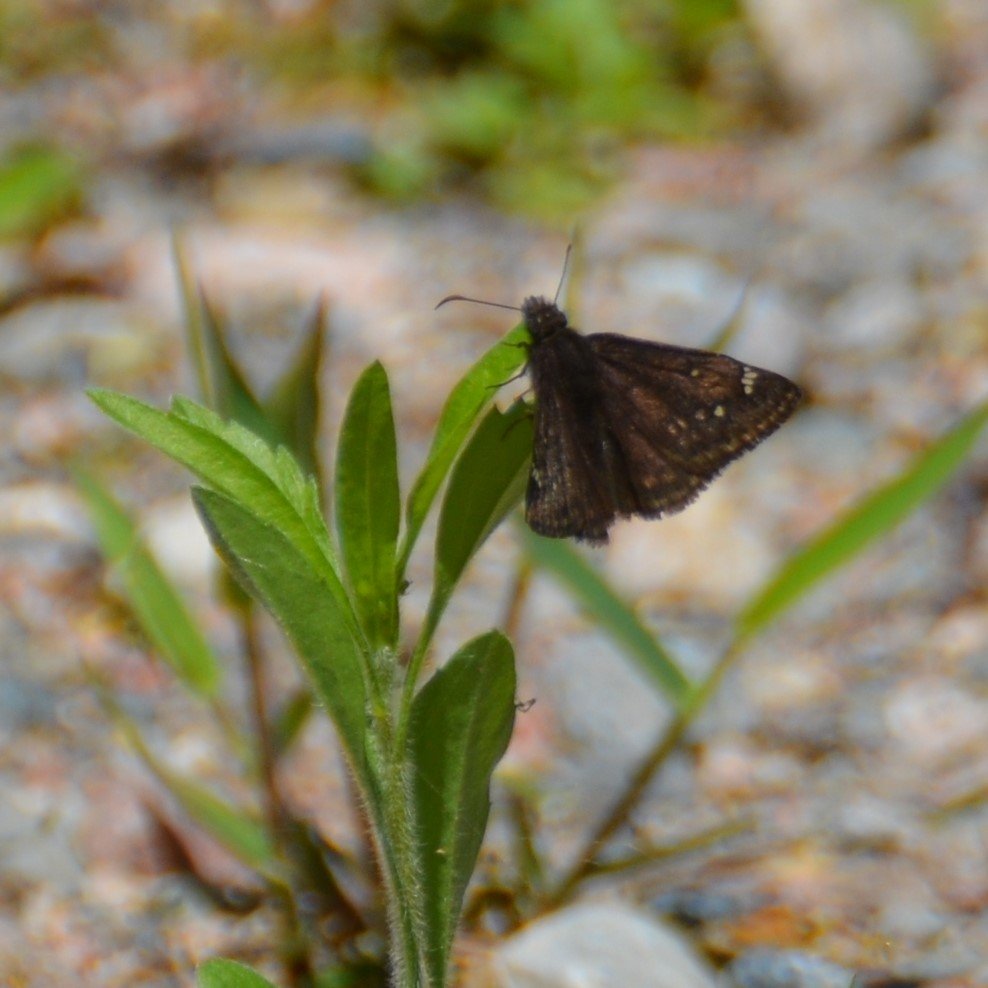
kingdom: Animalia
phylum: Arthropoda
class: Insecta
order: Lepidoptera
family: Hesperiidae
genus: Gesta
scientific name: Gesta
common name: Juvenal's Duskywing
